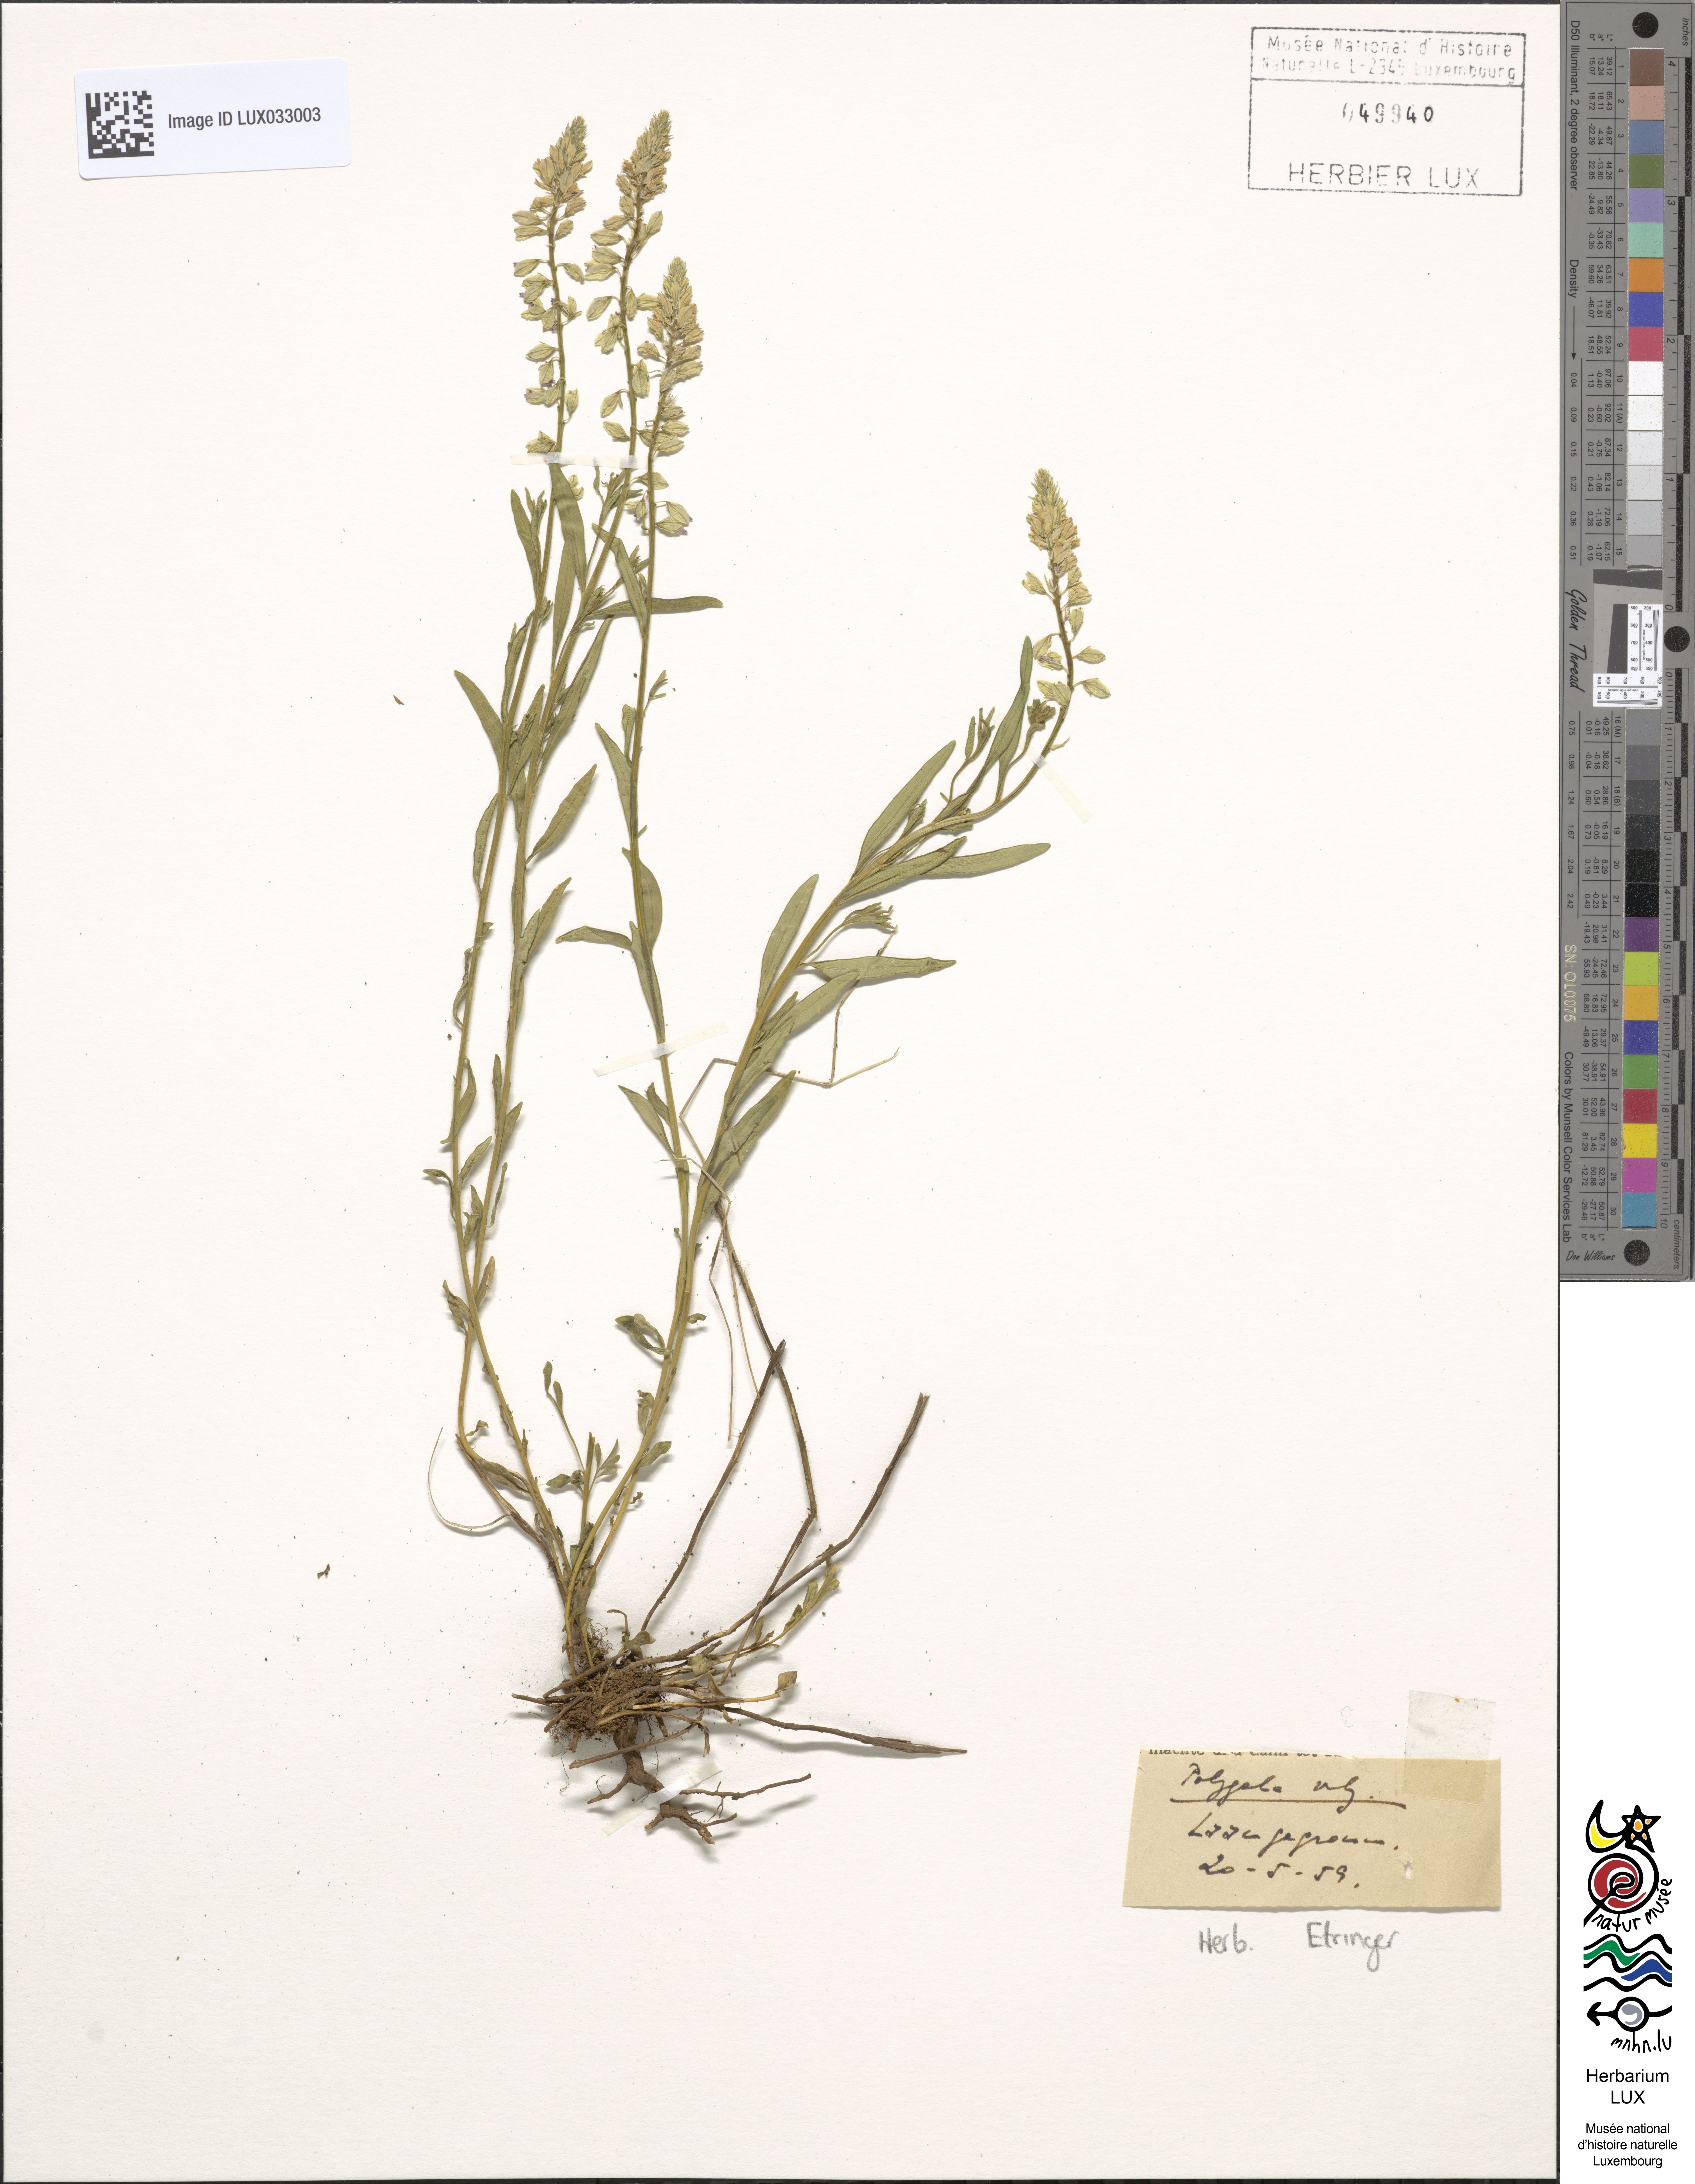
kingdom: Plantae
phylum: Tracheophyta
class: Magnoliopsida
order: Fabales
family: Polygalaceae
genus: Polygala
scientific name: Polygala vulgaris
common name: Common milkwort
